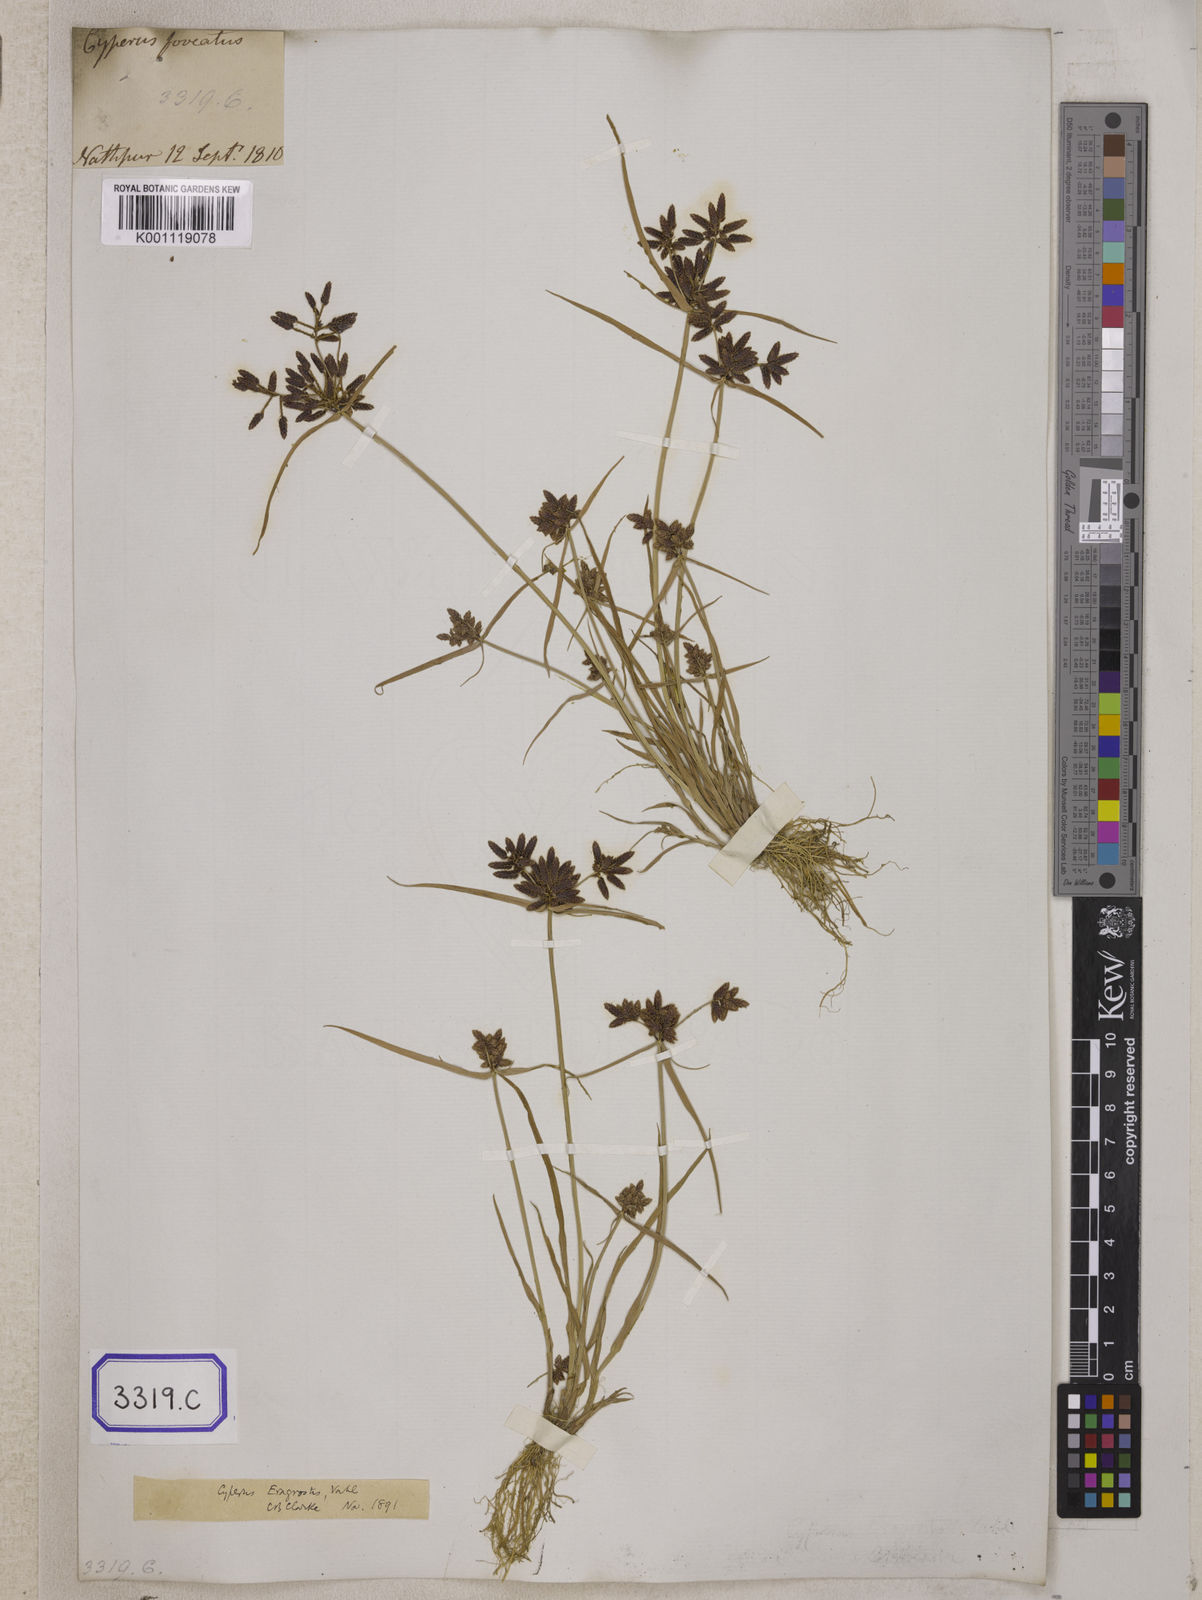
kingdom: Plantae
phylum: Tracheophyta
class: Liliopsida
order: Poales
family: Cyperaceae
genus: Cyperus
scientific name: Cyperus
